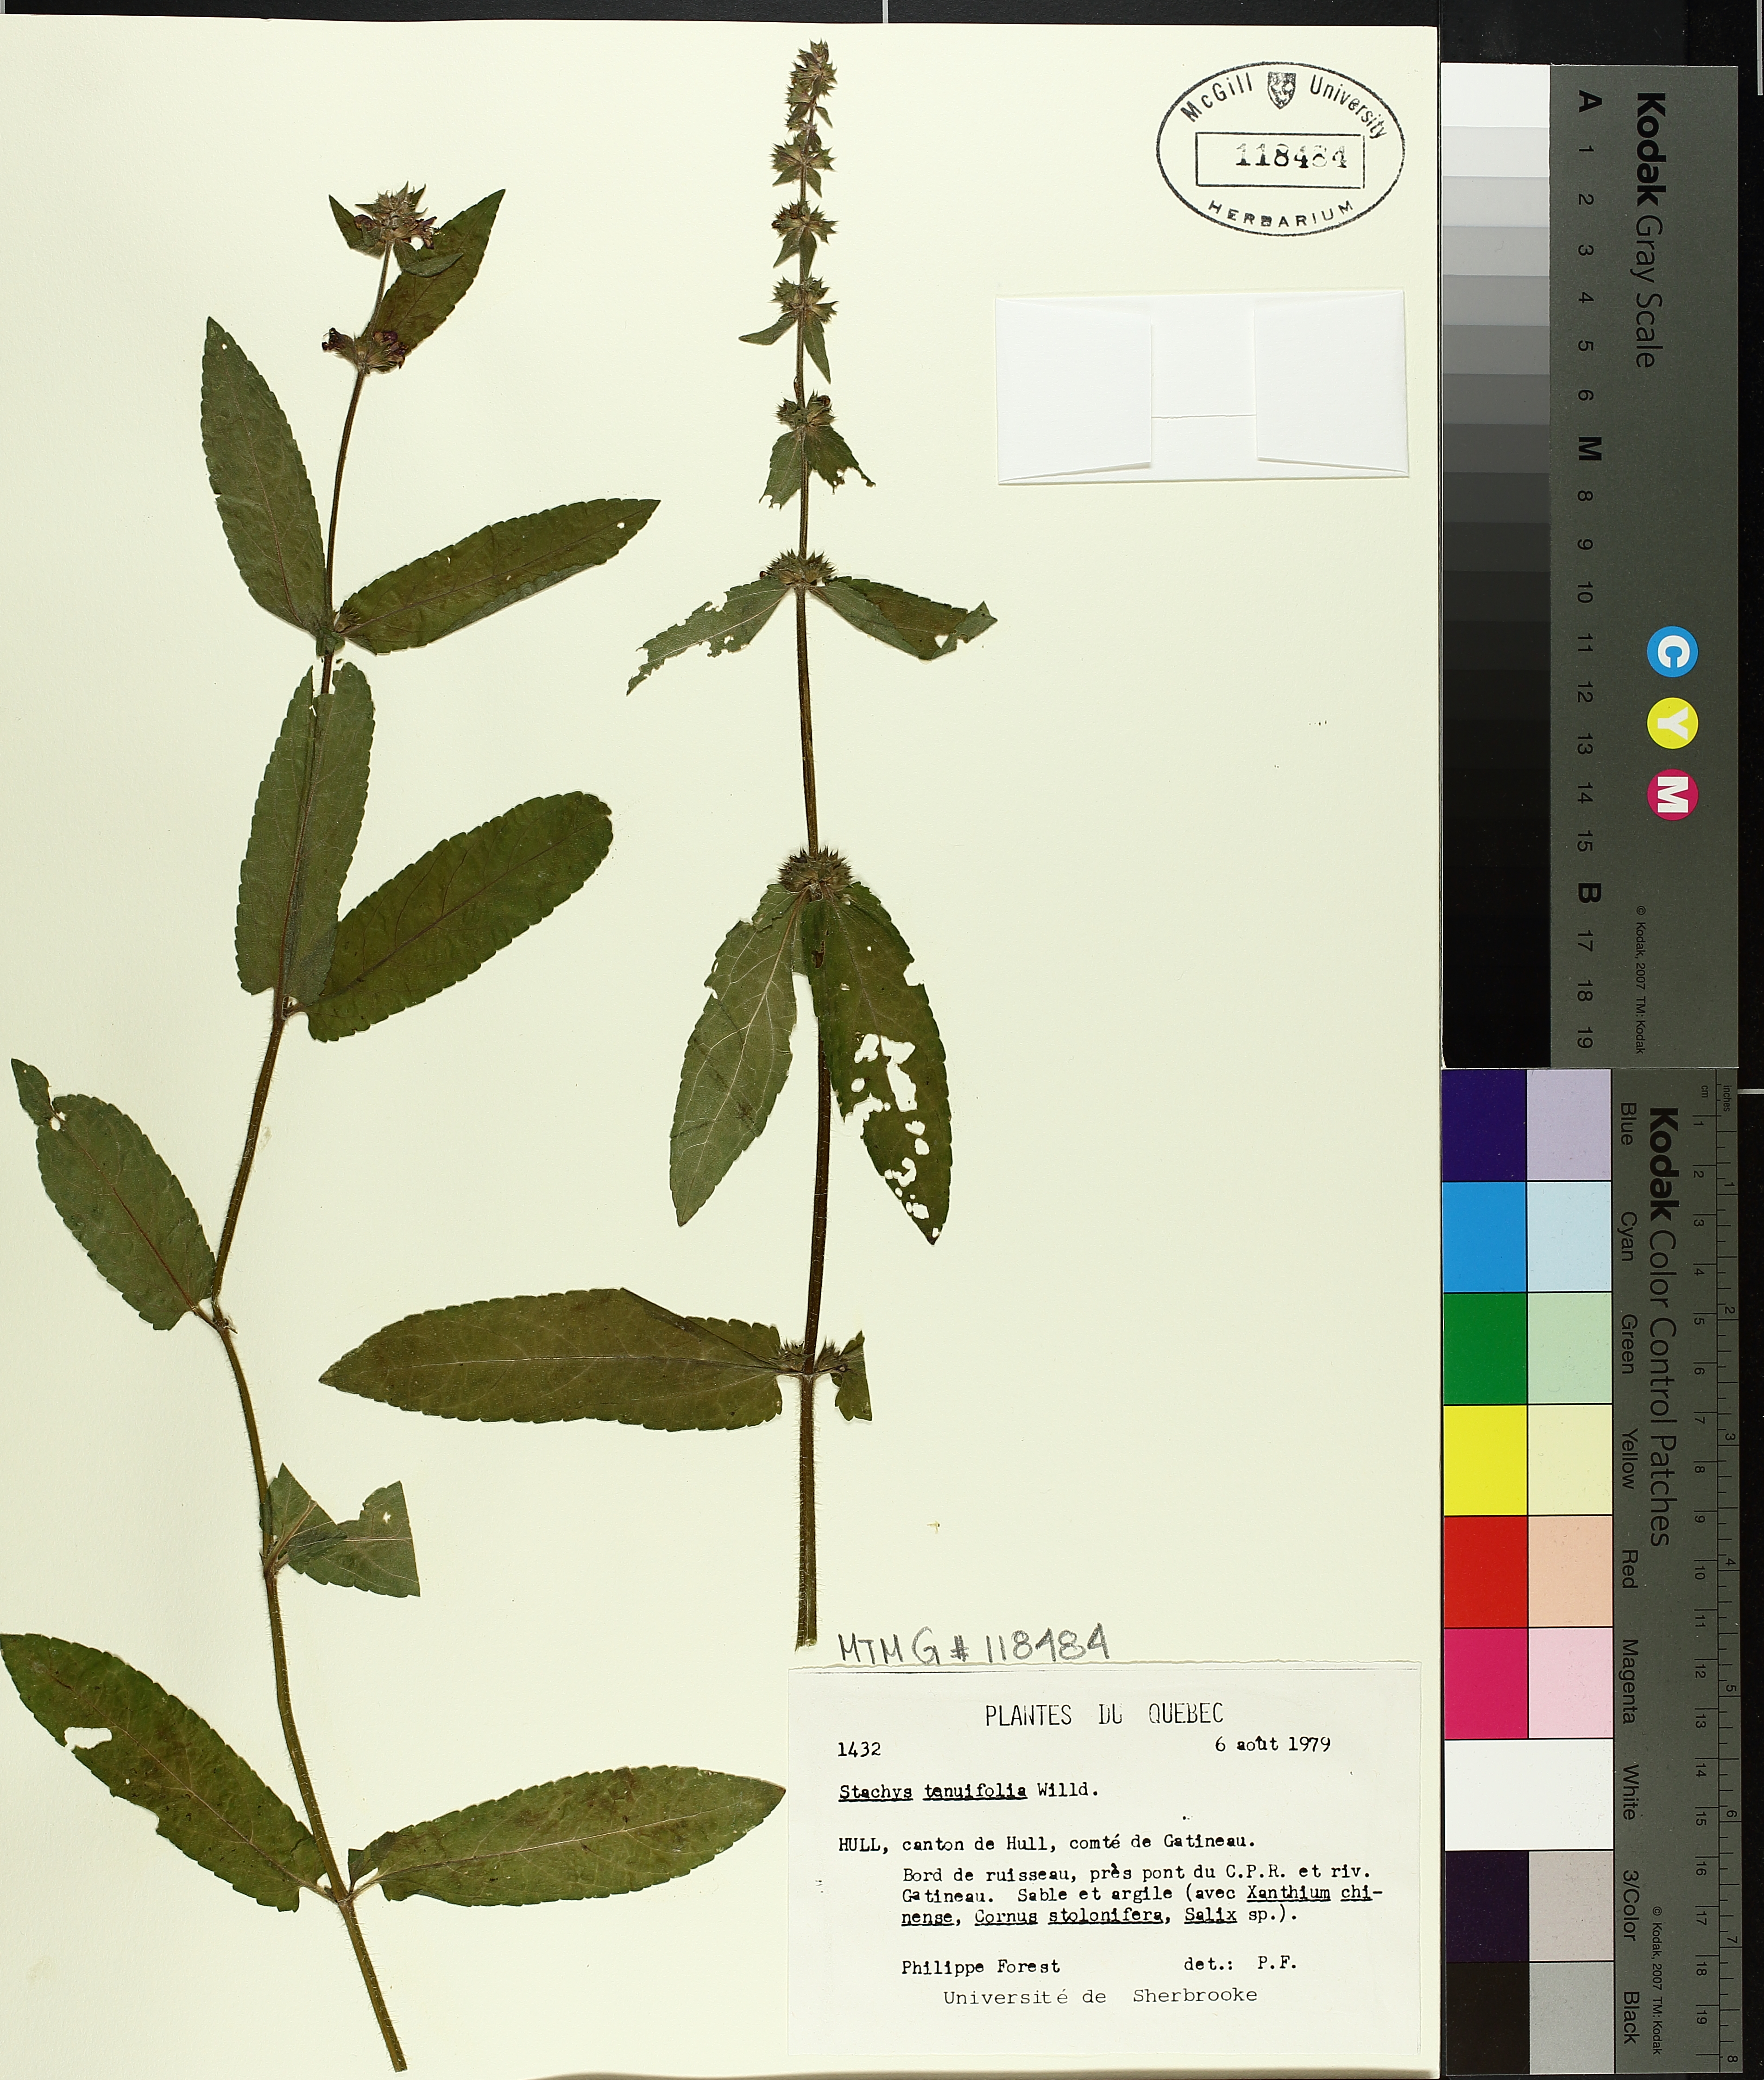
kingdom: Plantae
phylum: Tracheophyta
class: Magnoliopsida
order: Lamiales
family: Lamiaceae
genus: Stachys
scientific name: Stachys tenuifolia
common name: Smooth hedge-nettle
